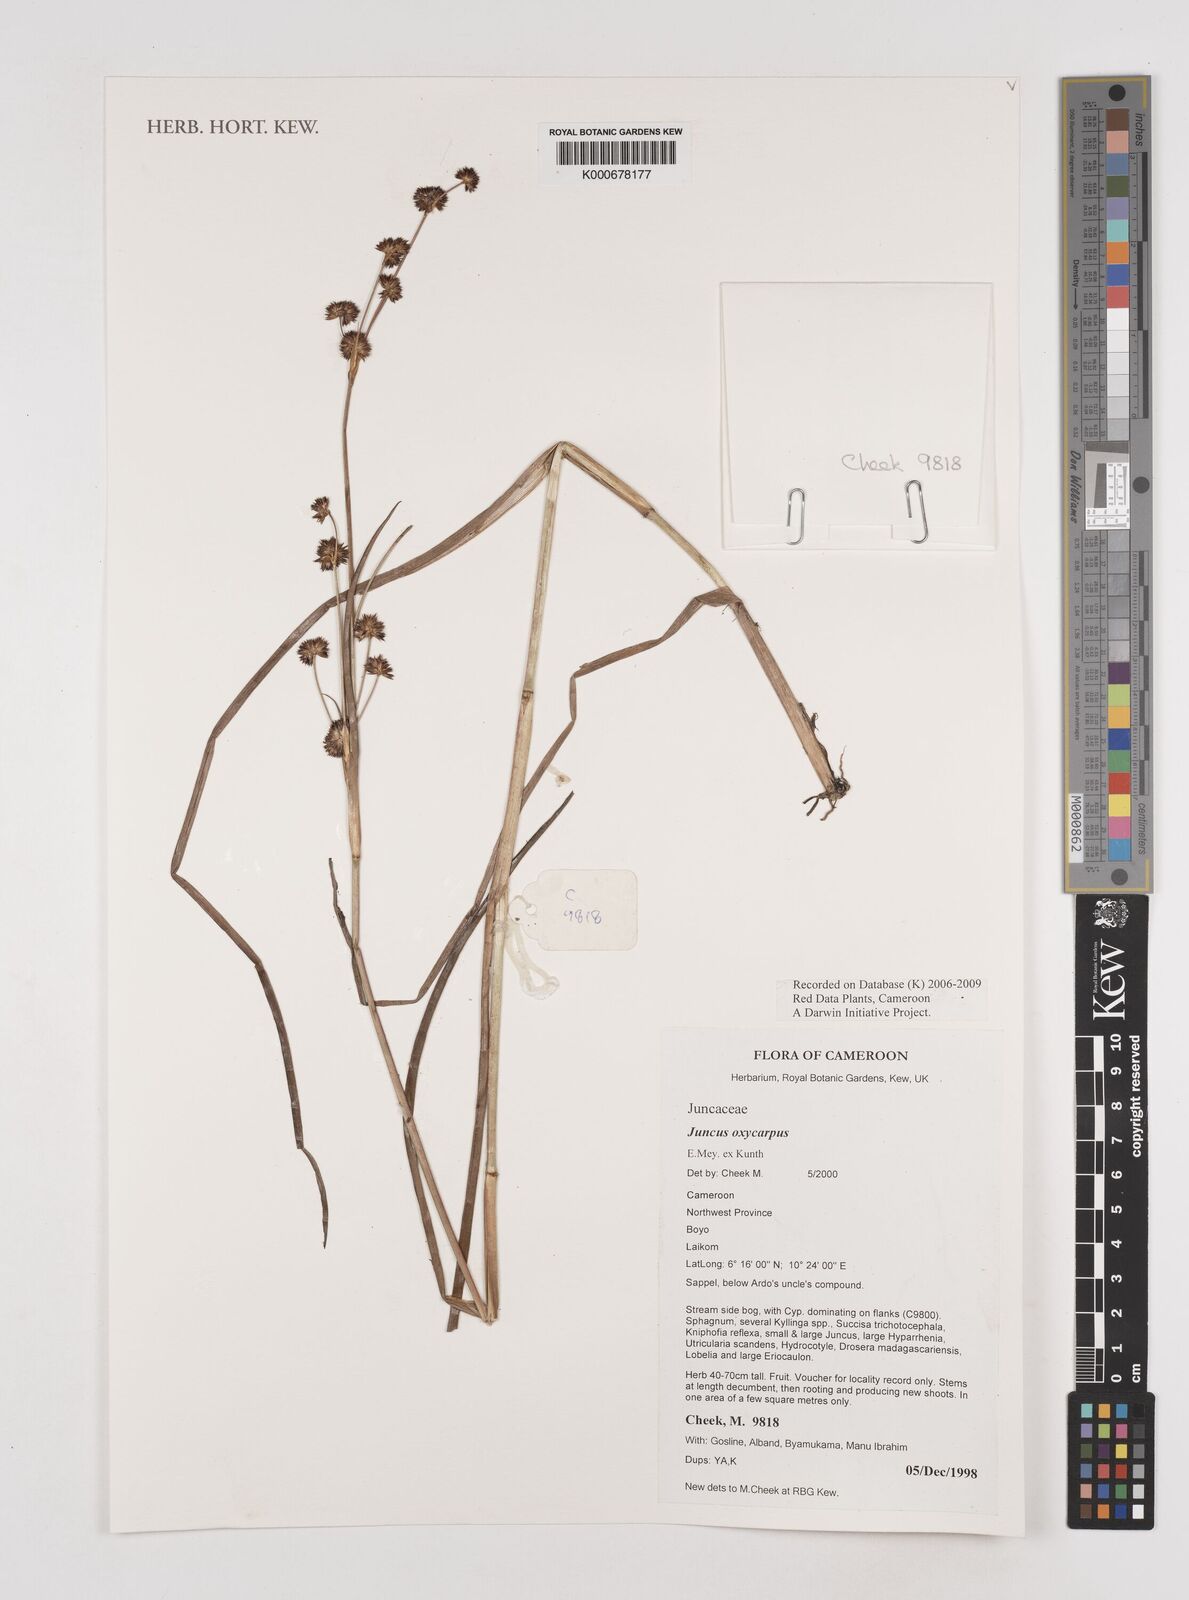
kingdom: Plantae
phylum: Tracheophyta
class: Liliopsida
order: Poales
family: Juncaceae
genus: Juncus
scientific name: Juncus oxycarpus
